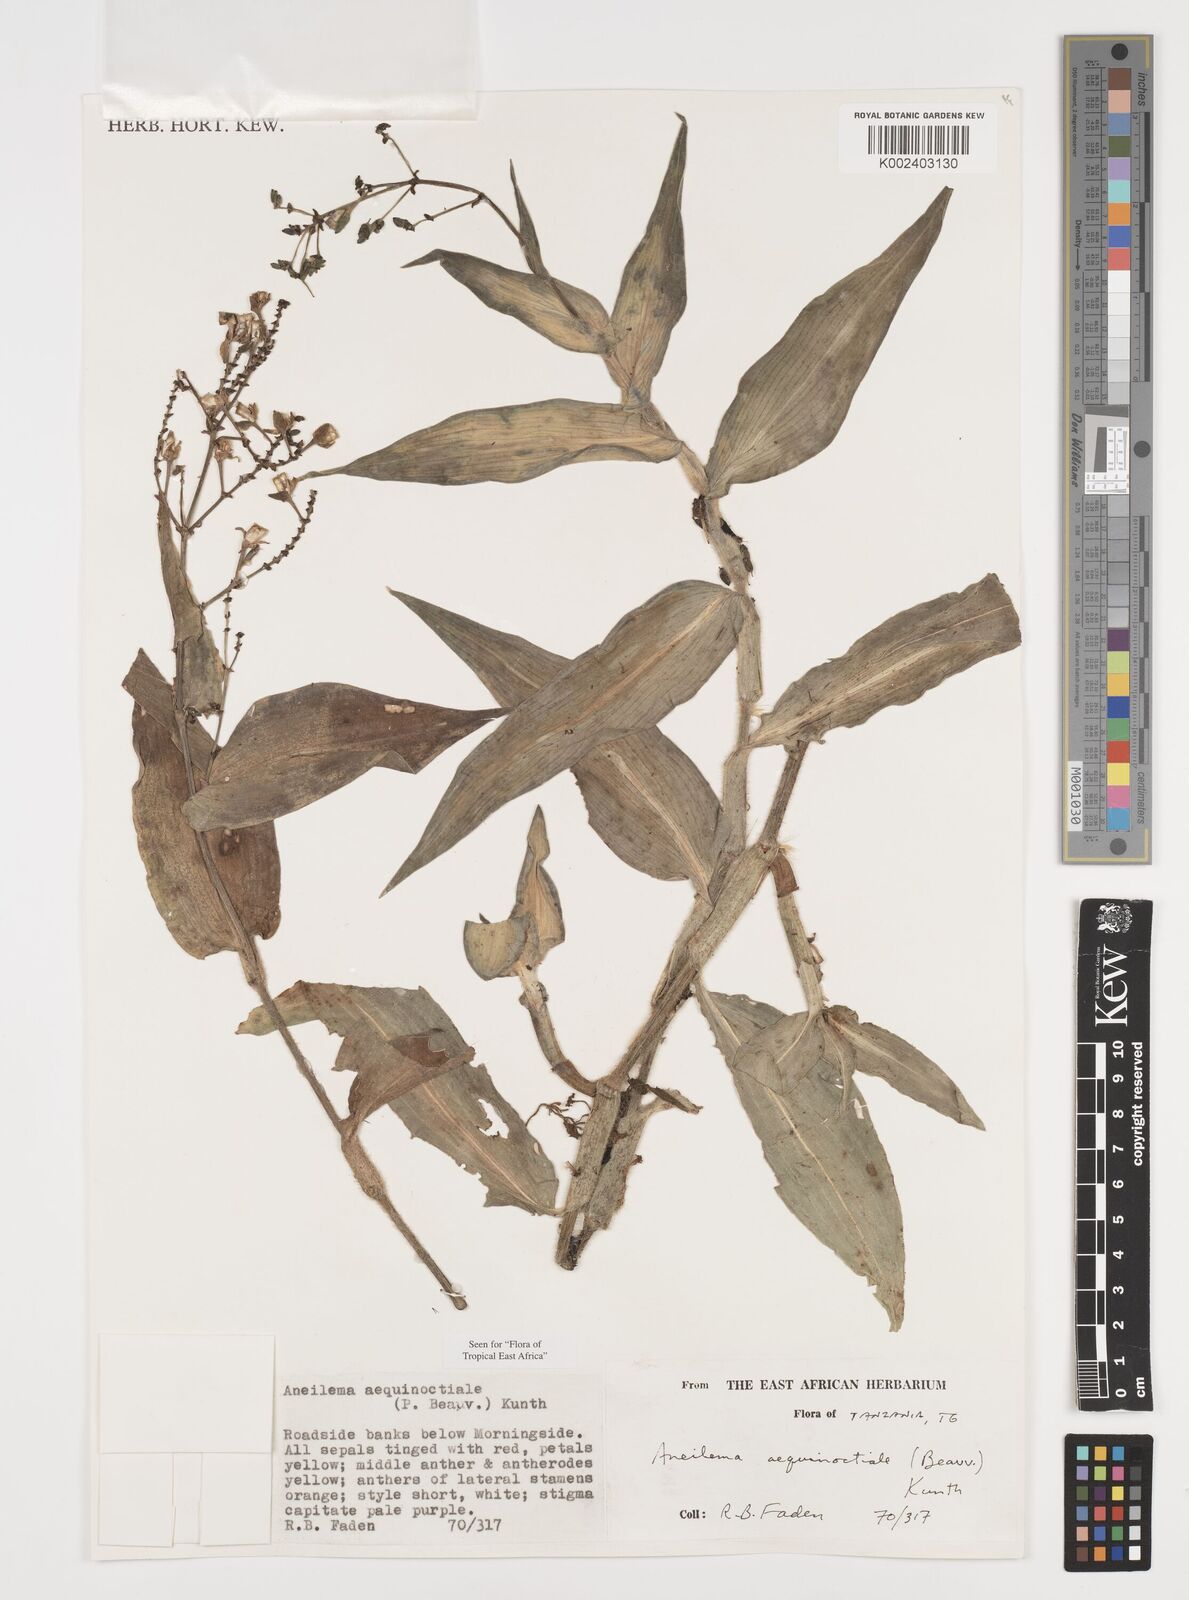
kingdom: Plantae
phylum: Tracheophyta
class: Liliopsida
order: Commelinales
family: Commelinaceae
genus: Aneilema
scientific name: Aneilema aequinoctiale
